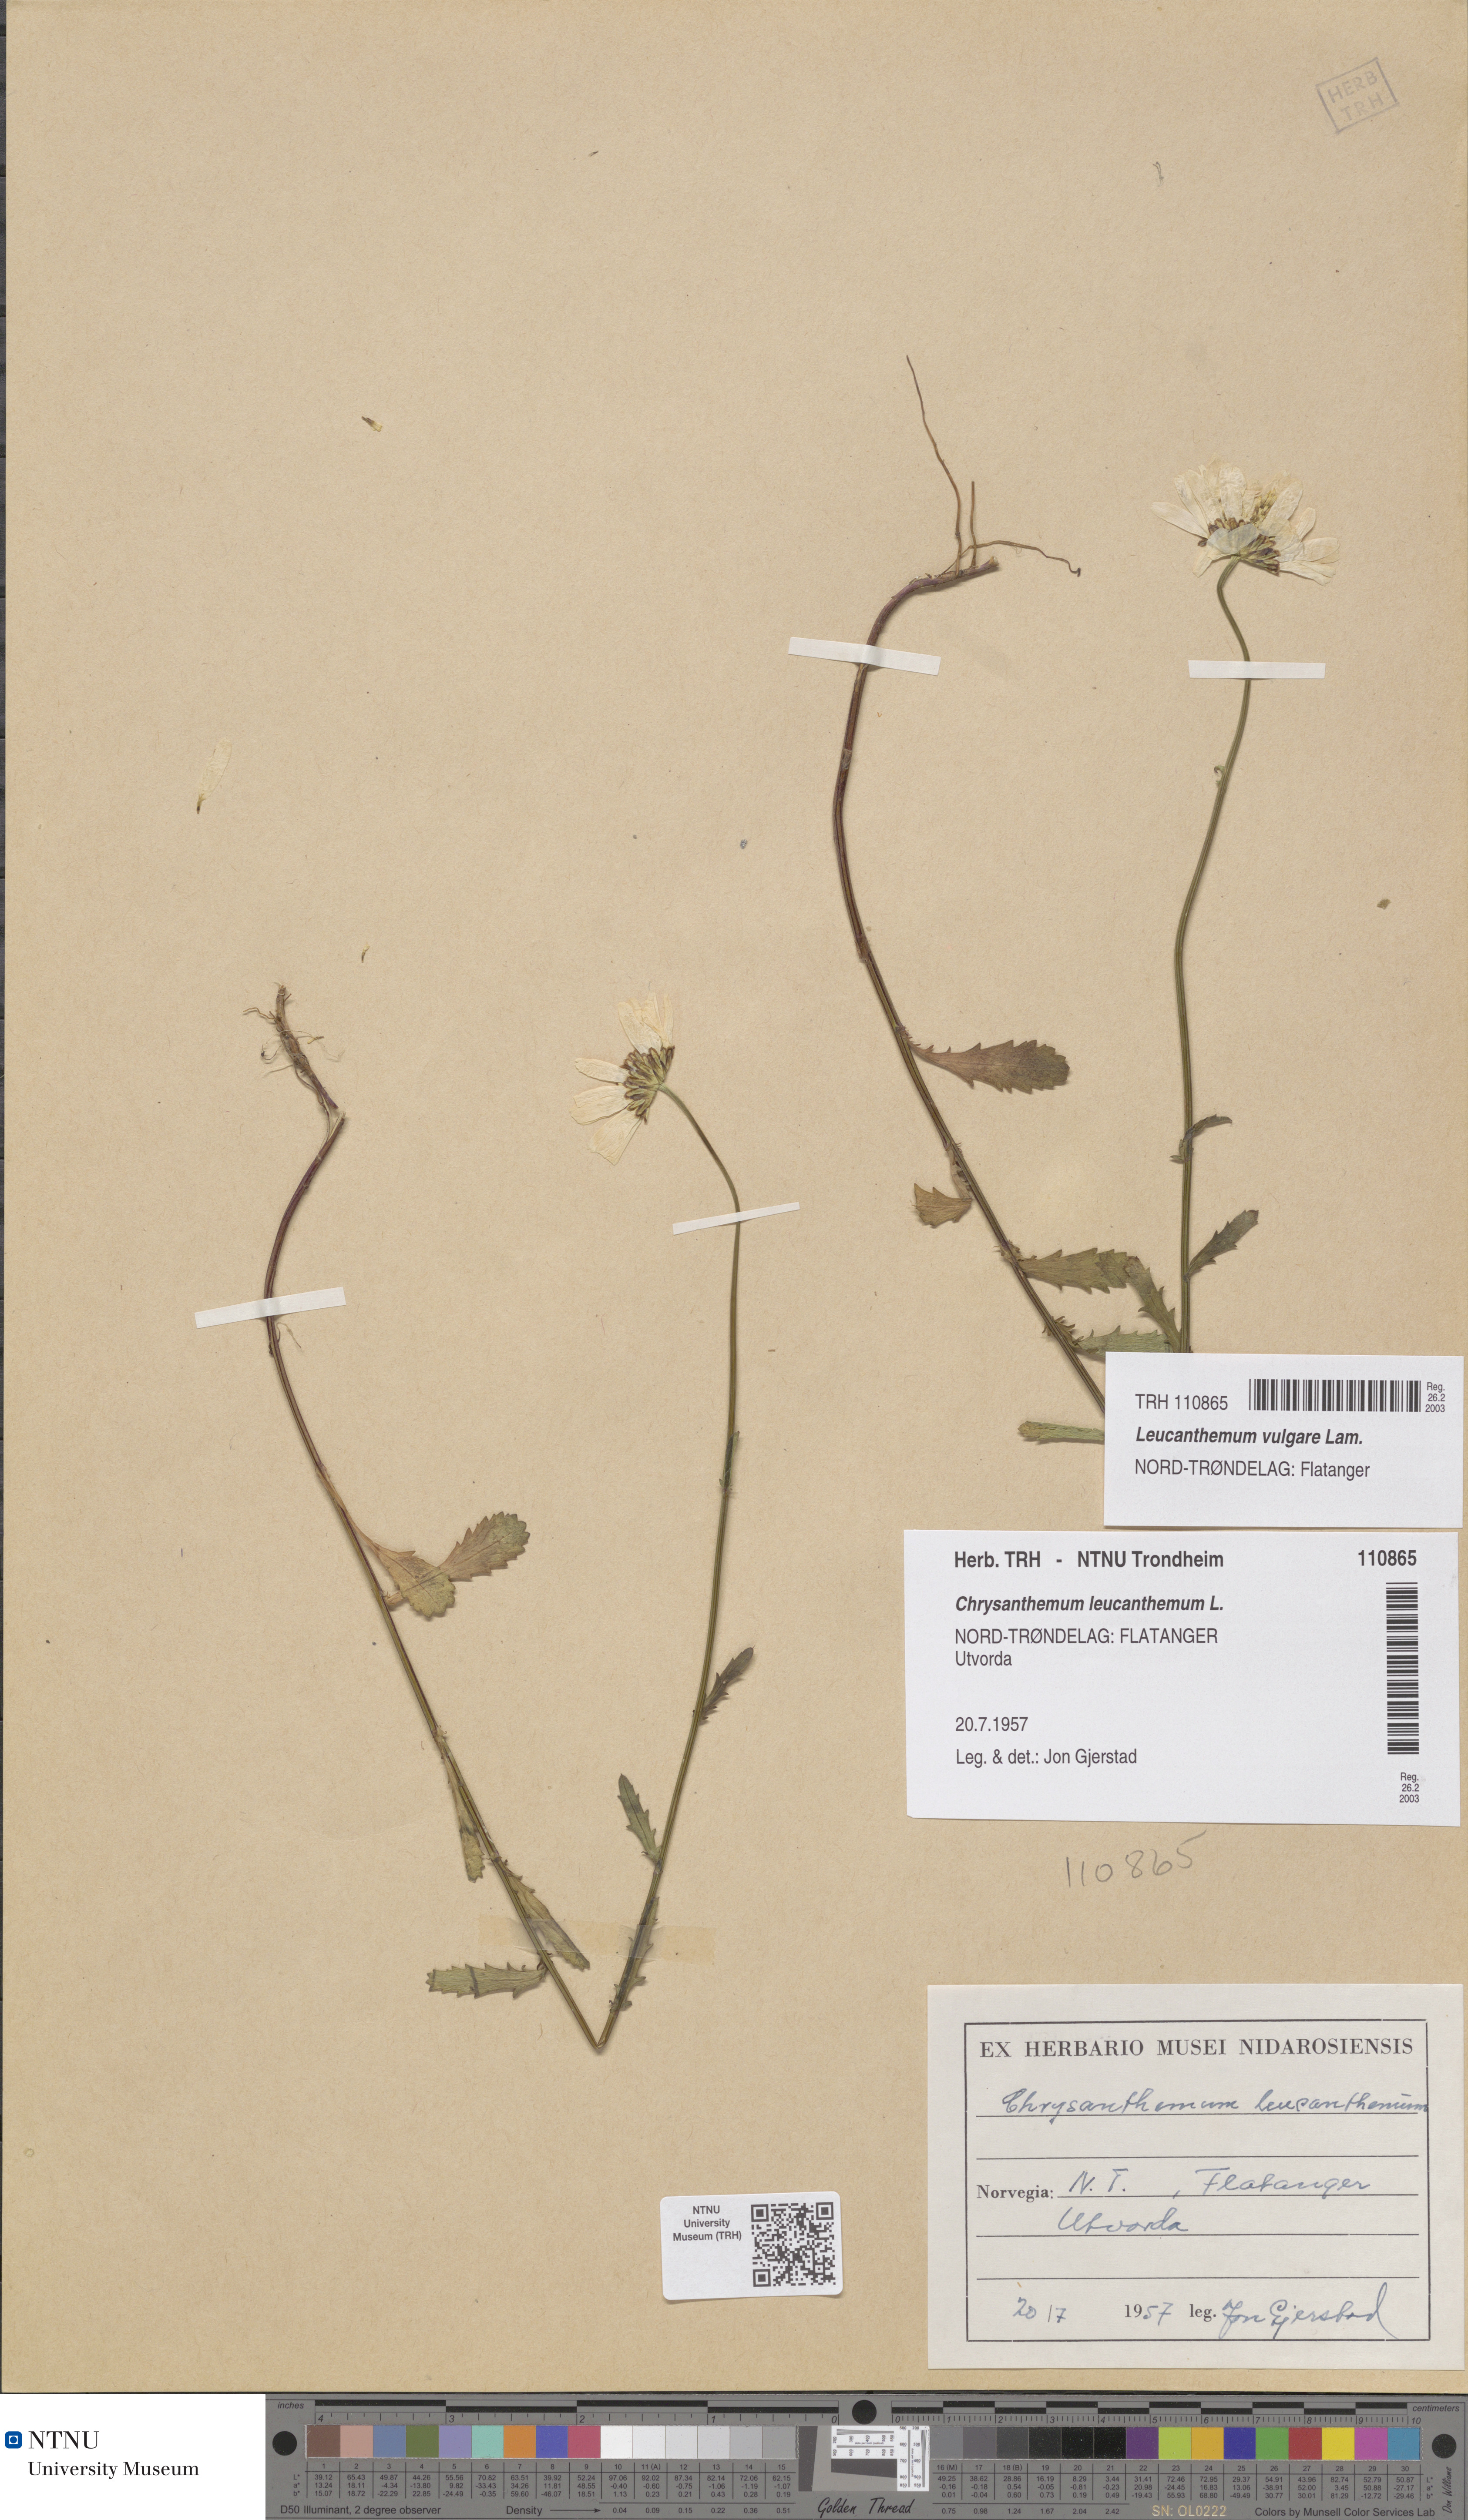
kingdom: Plantae
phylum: Tracheophyta
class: Magnoliopsida
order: Asterales
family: Asteraceae
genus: Leucanthemum
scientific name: Leucanthemum vulgare
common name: Oxeye daisy
